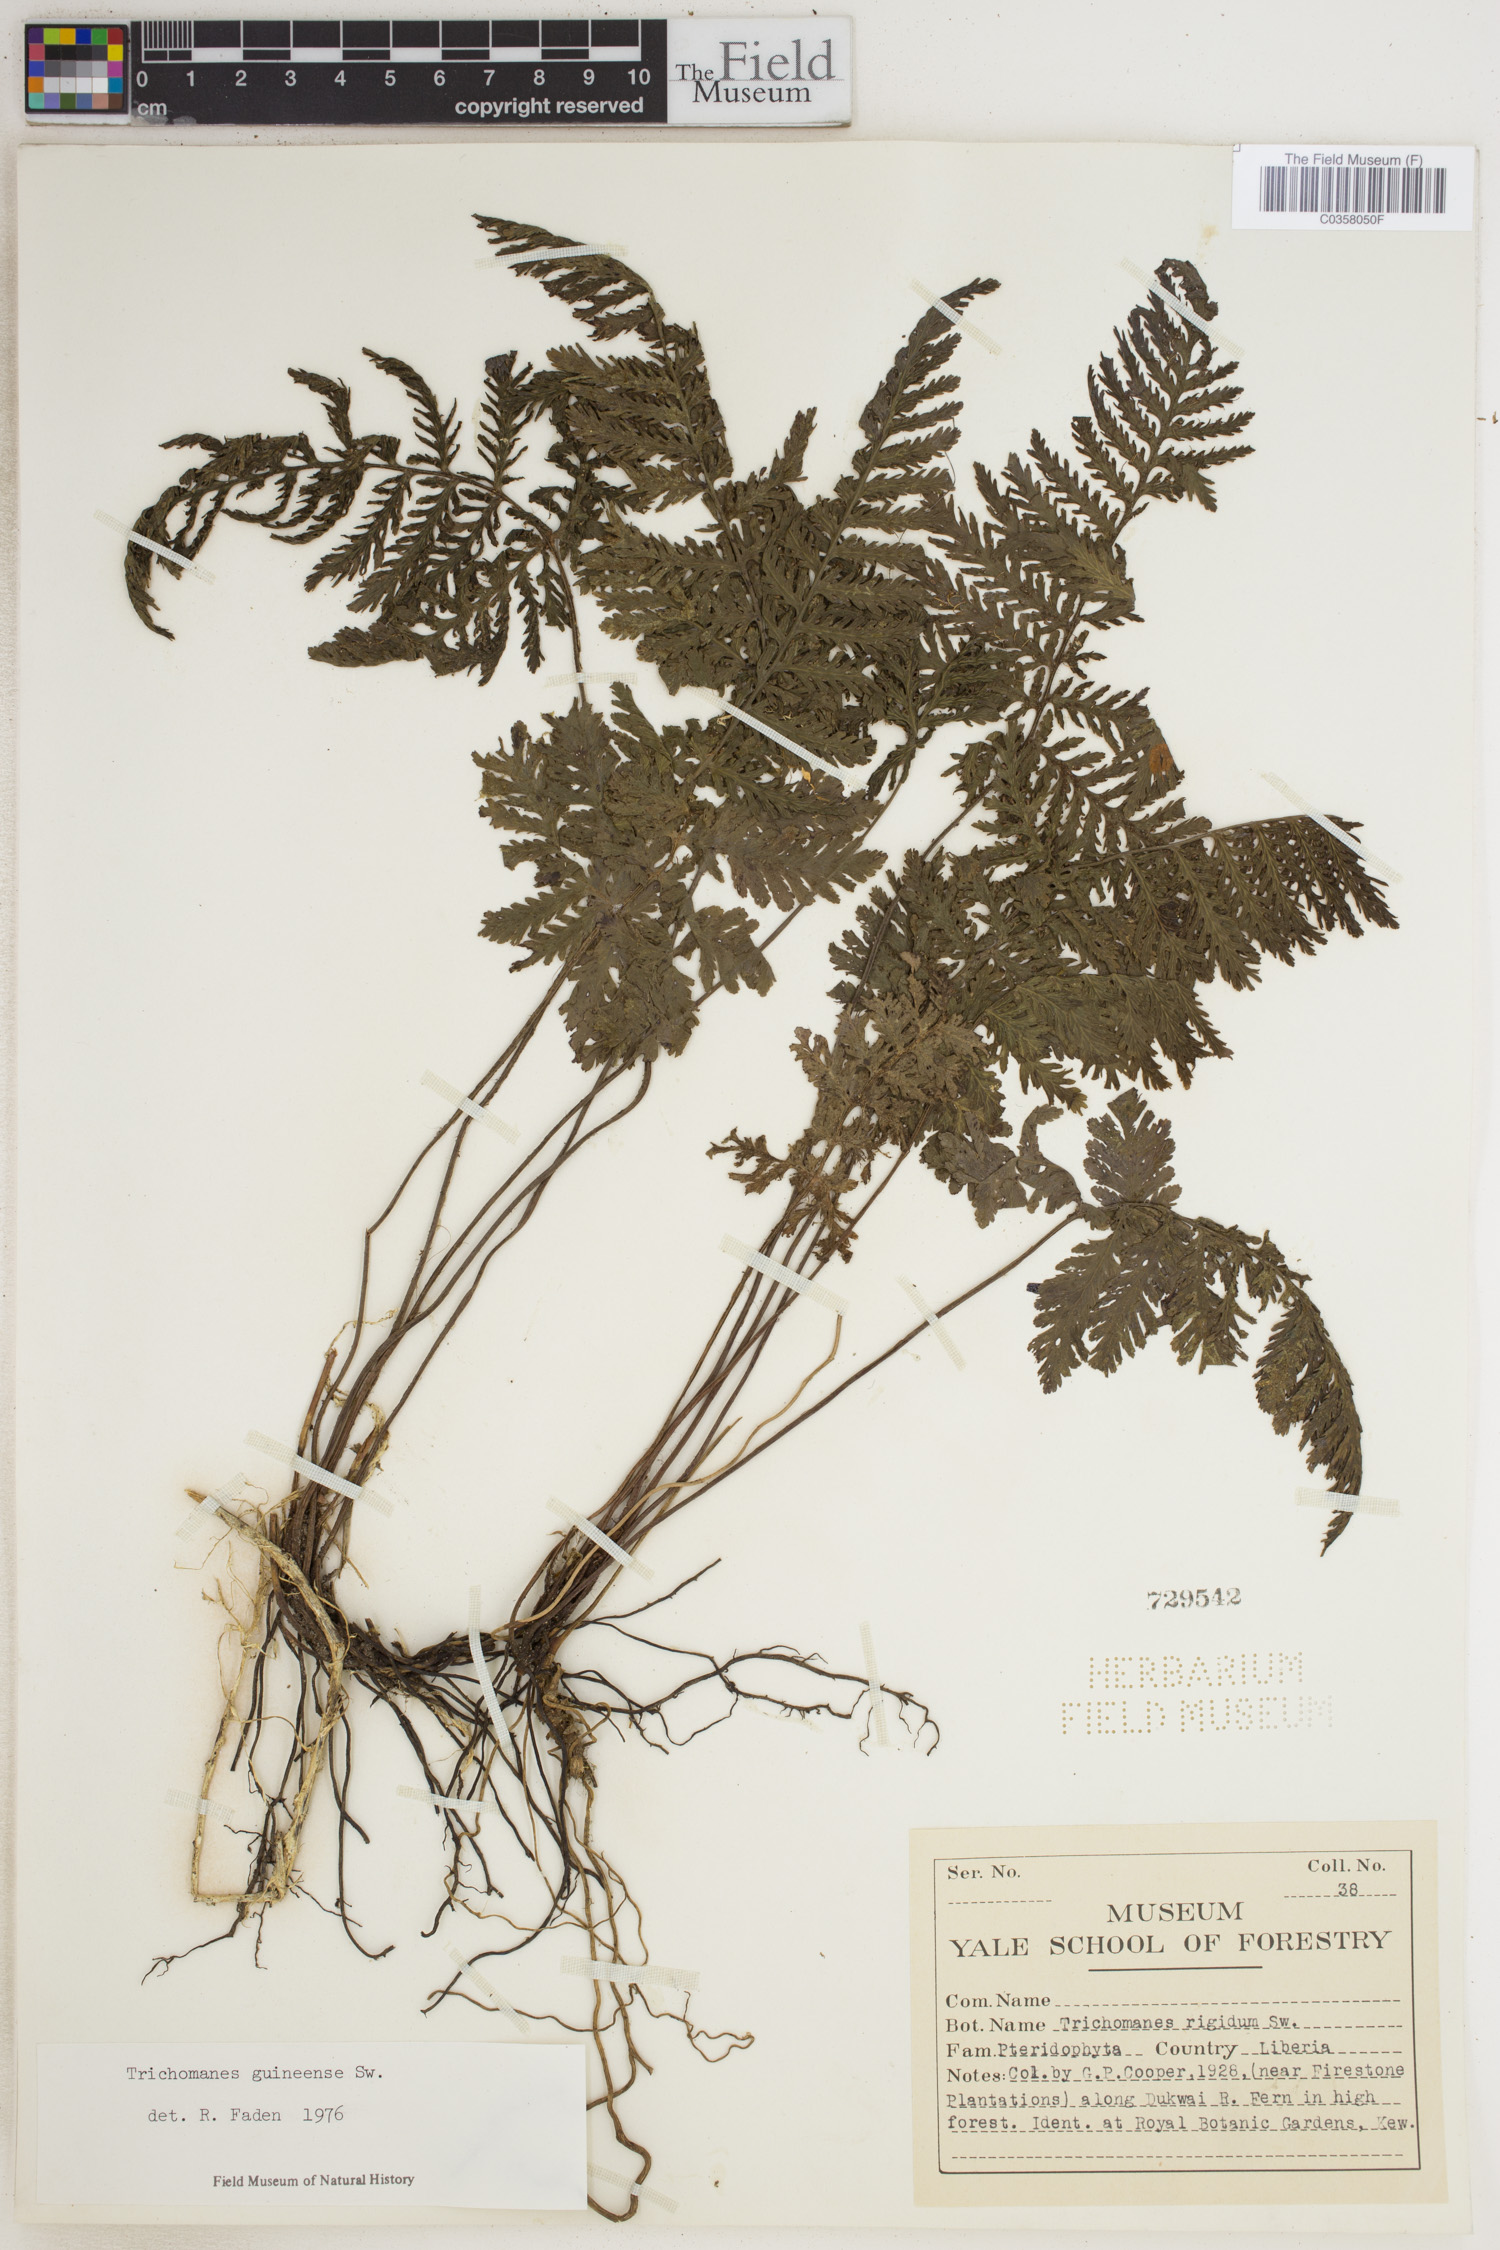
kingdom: Plantae
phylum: Tracheophyta
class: Polypodiopsida
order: Hymenophyllales
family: Hymenophyllaceae
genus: Abrodictyum
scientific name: Abrodictyum guineense
